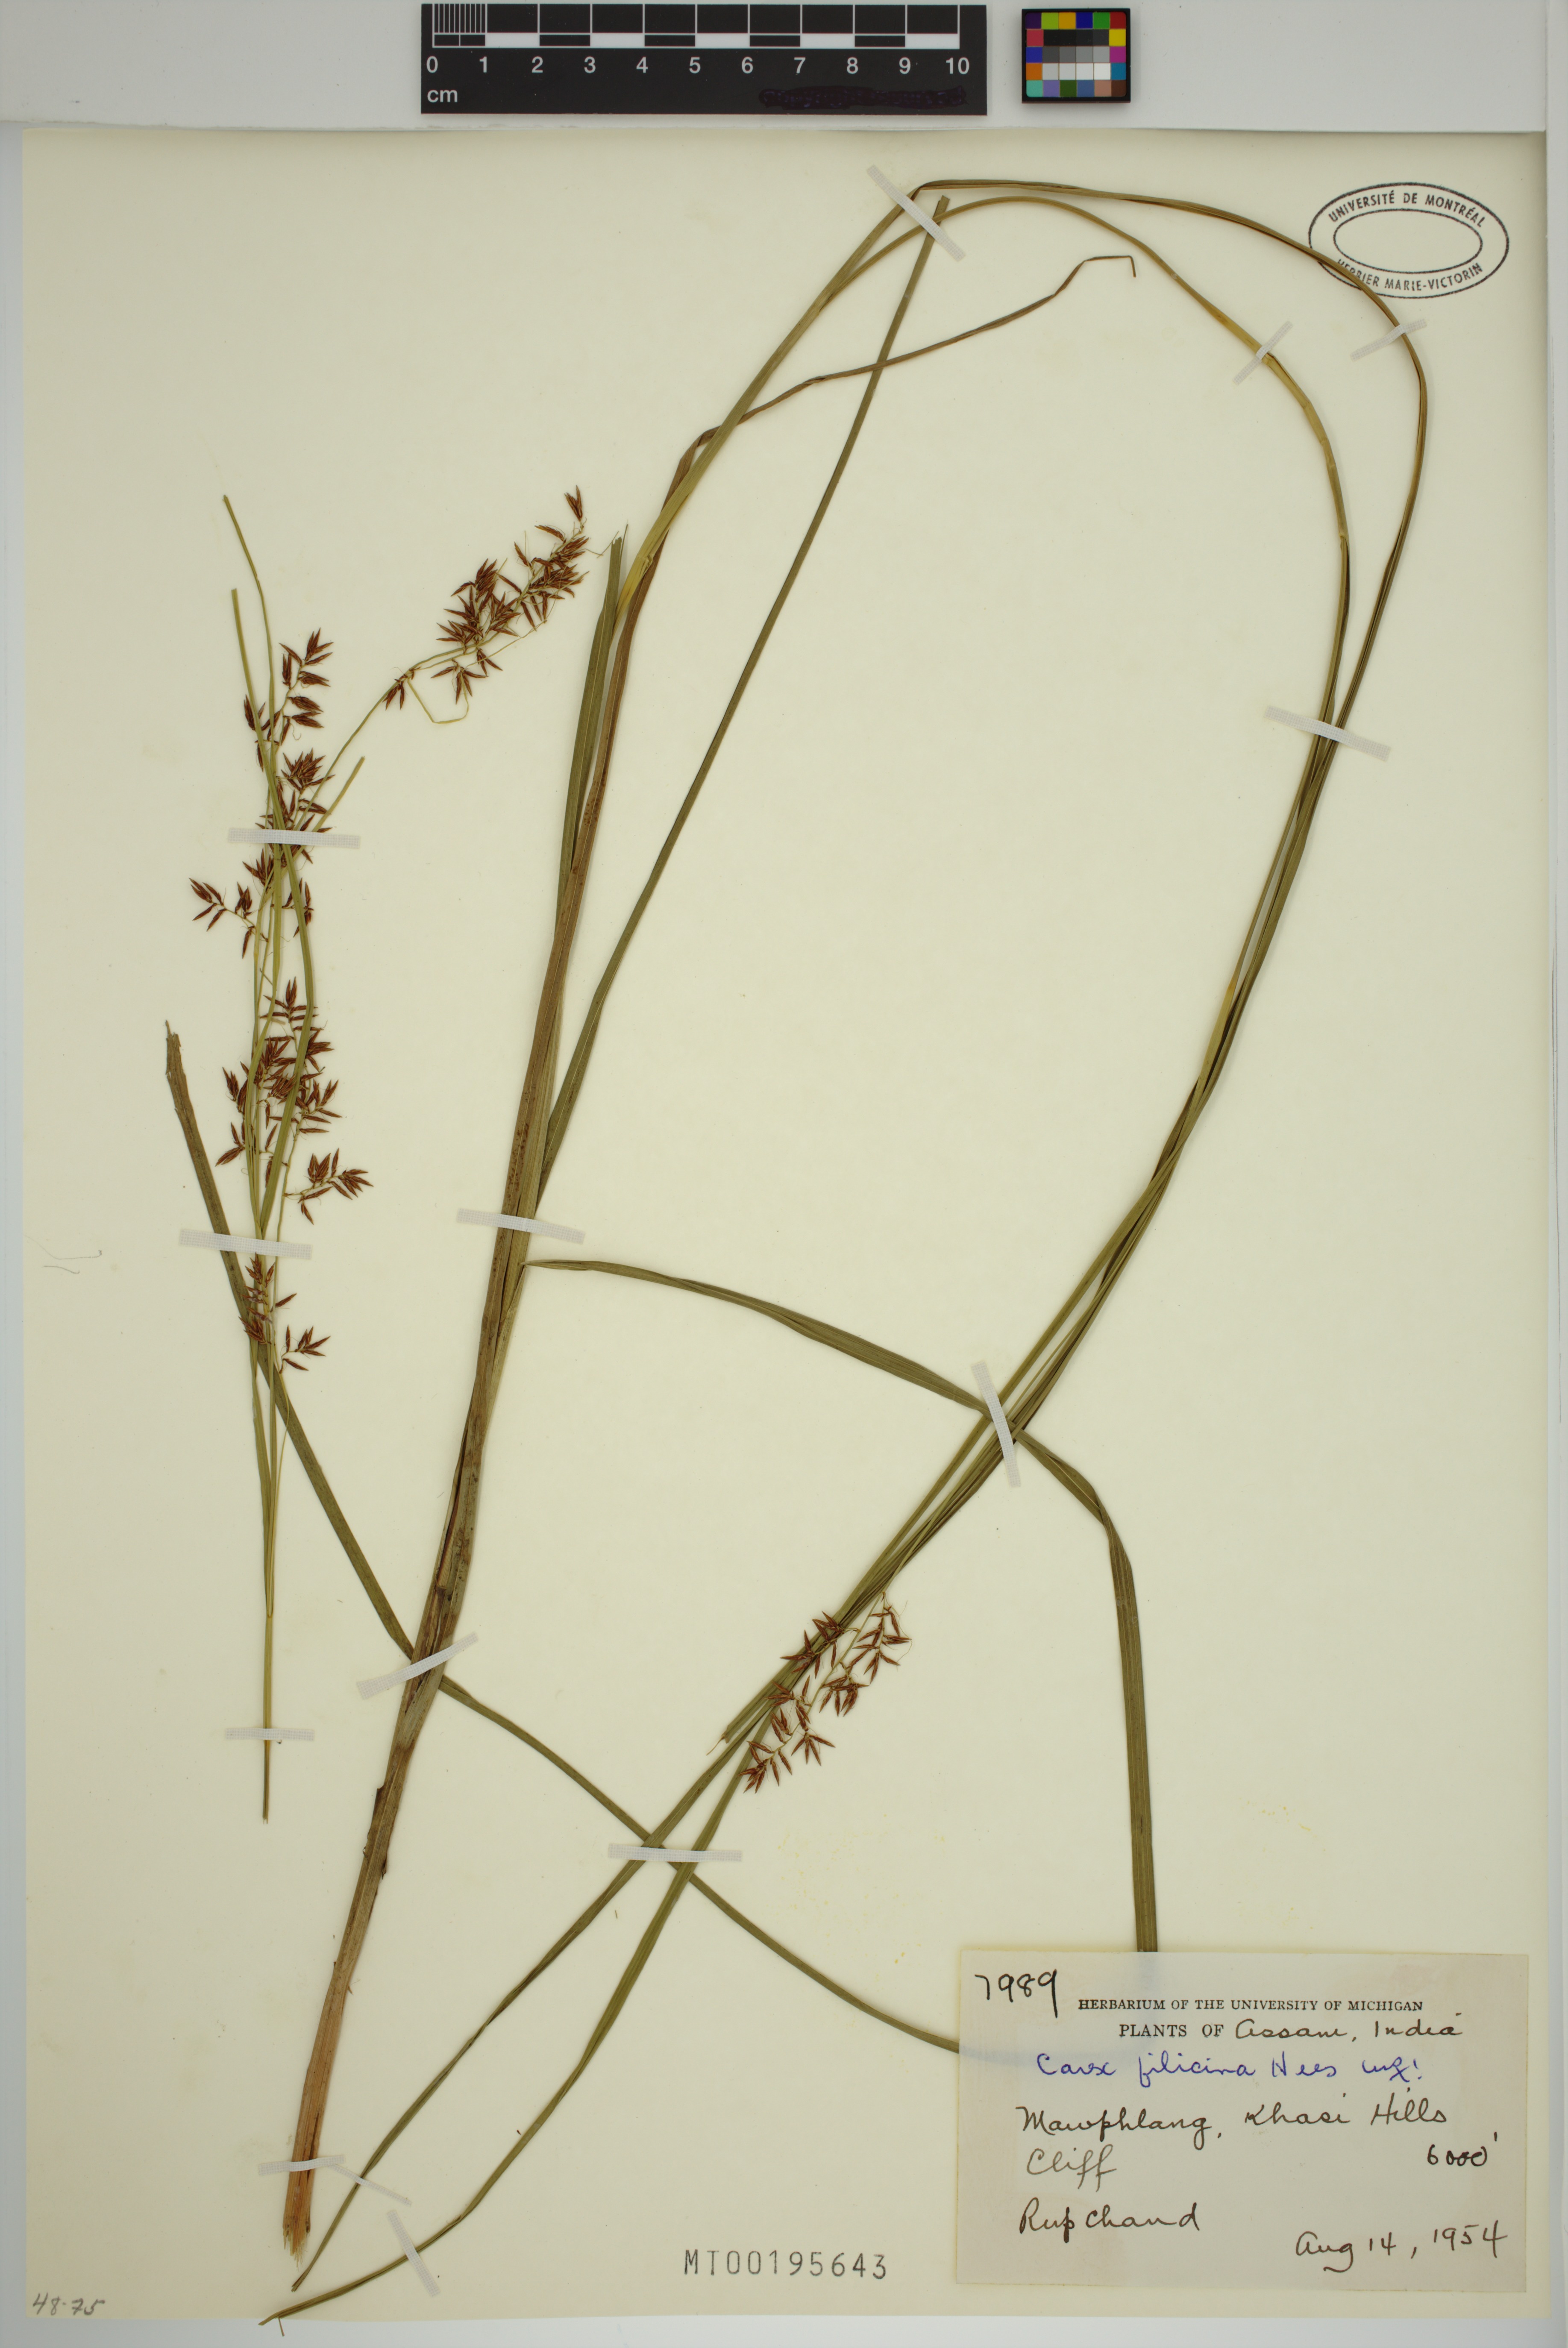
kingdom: Plantae
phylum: Tracheophyta
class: Liliopsida
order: Poales
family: Cyperaceae
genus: Carex
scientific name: Carex filicina
